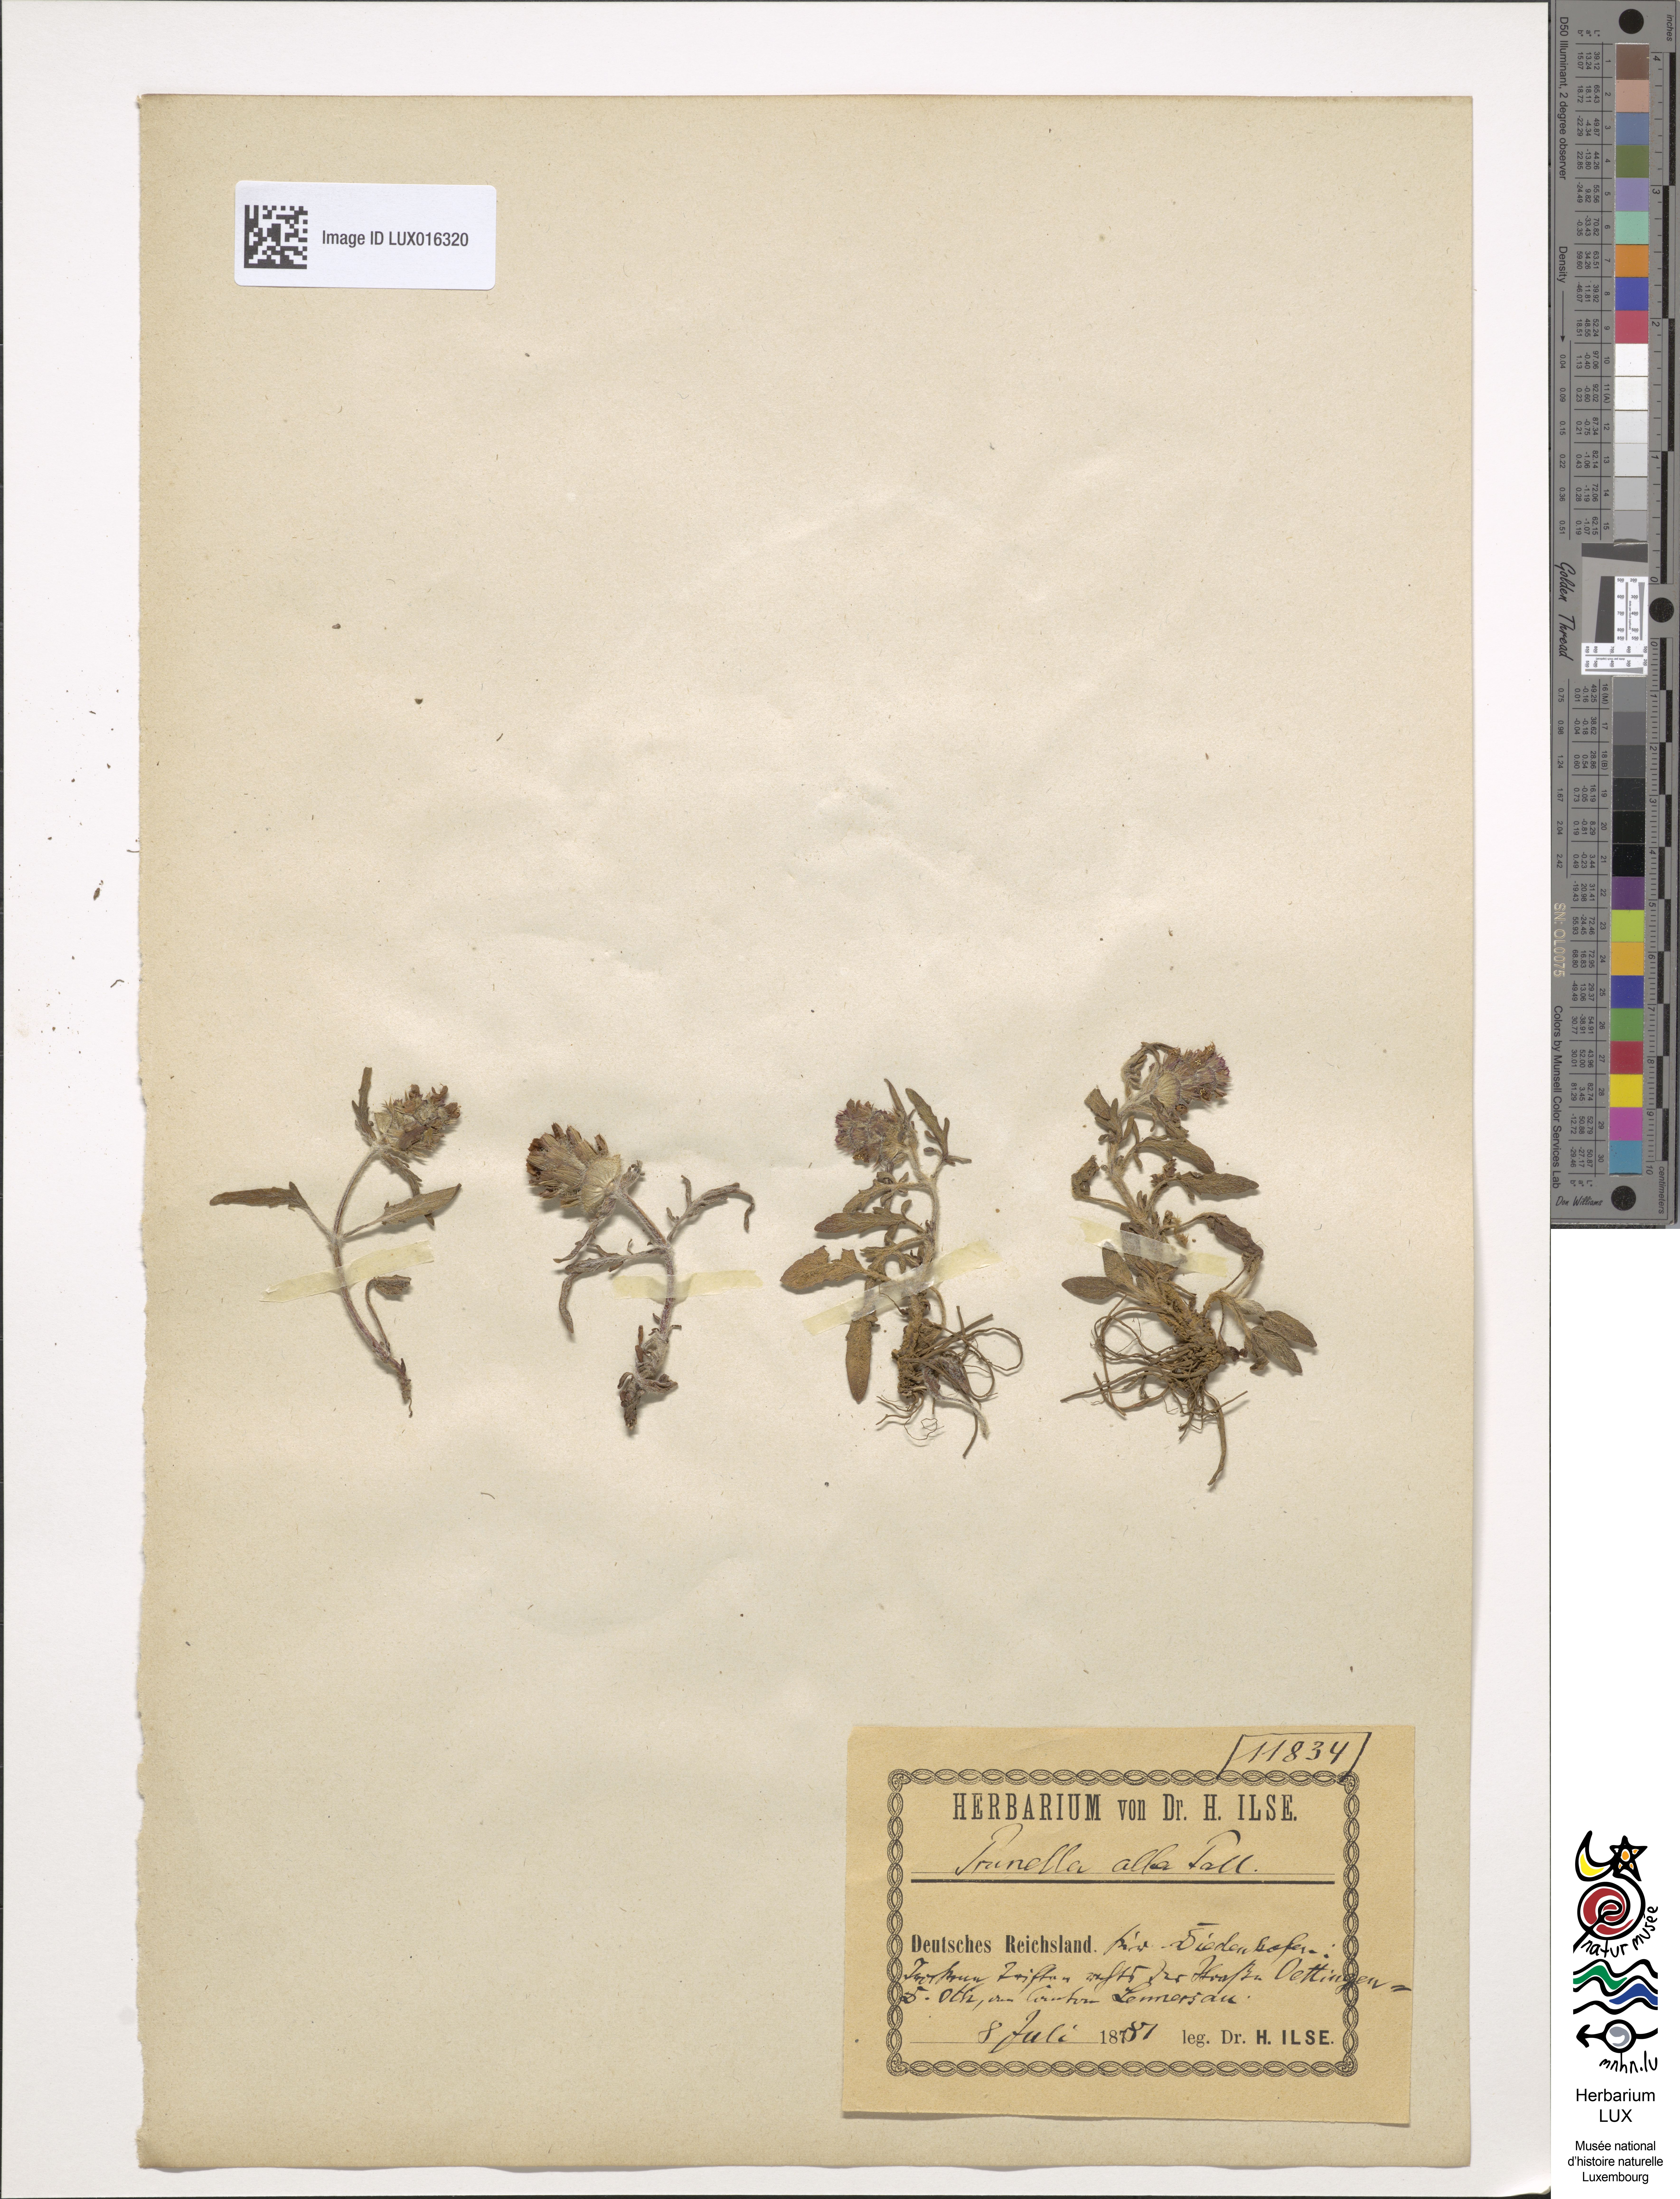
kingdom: Plantae
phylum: Tracheophyta
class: Magnoliopsida
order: Lamiales
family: Lamiaceae
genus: Prunella
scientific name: Prunella laciniata
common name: Cut-leaved selfheal
